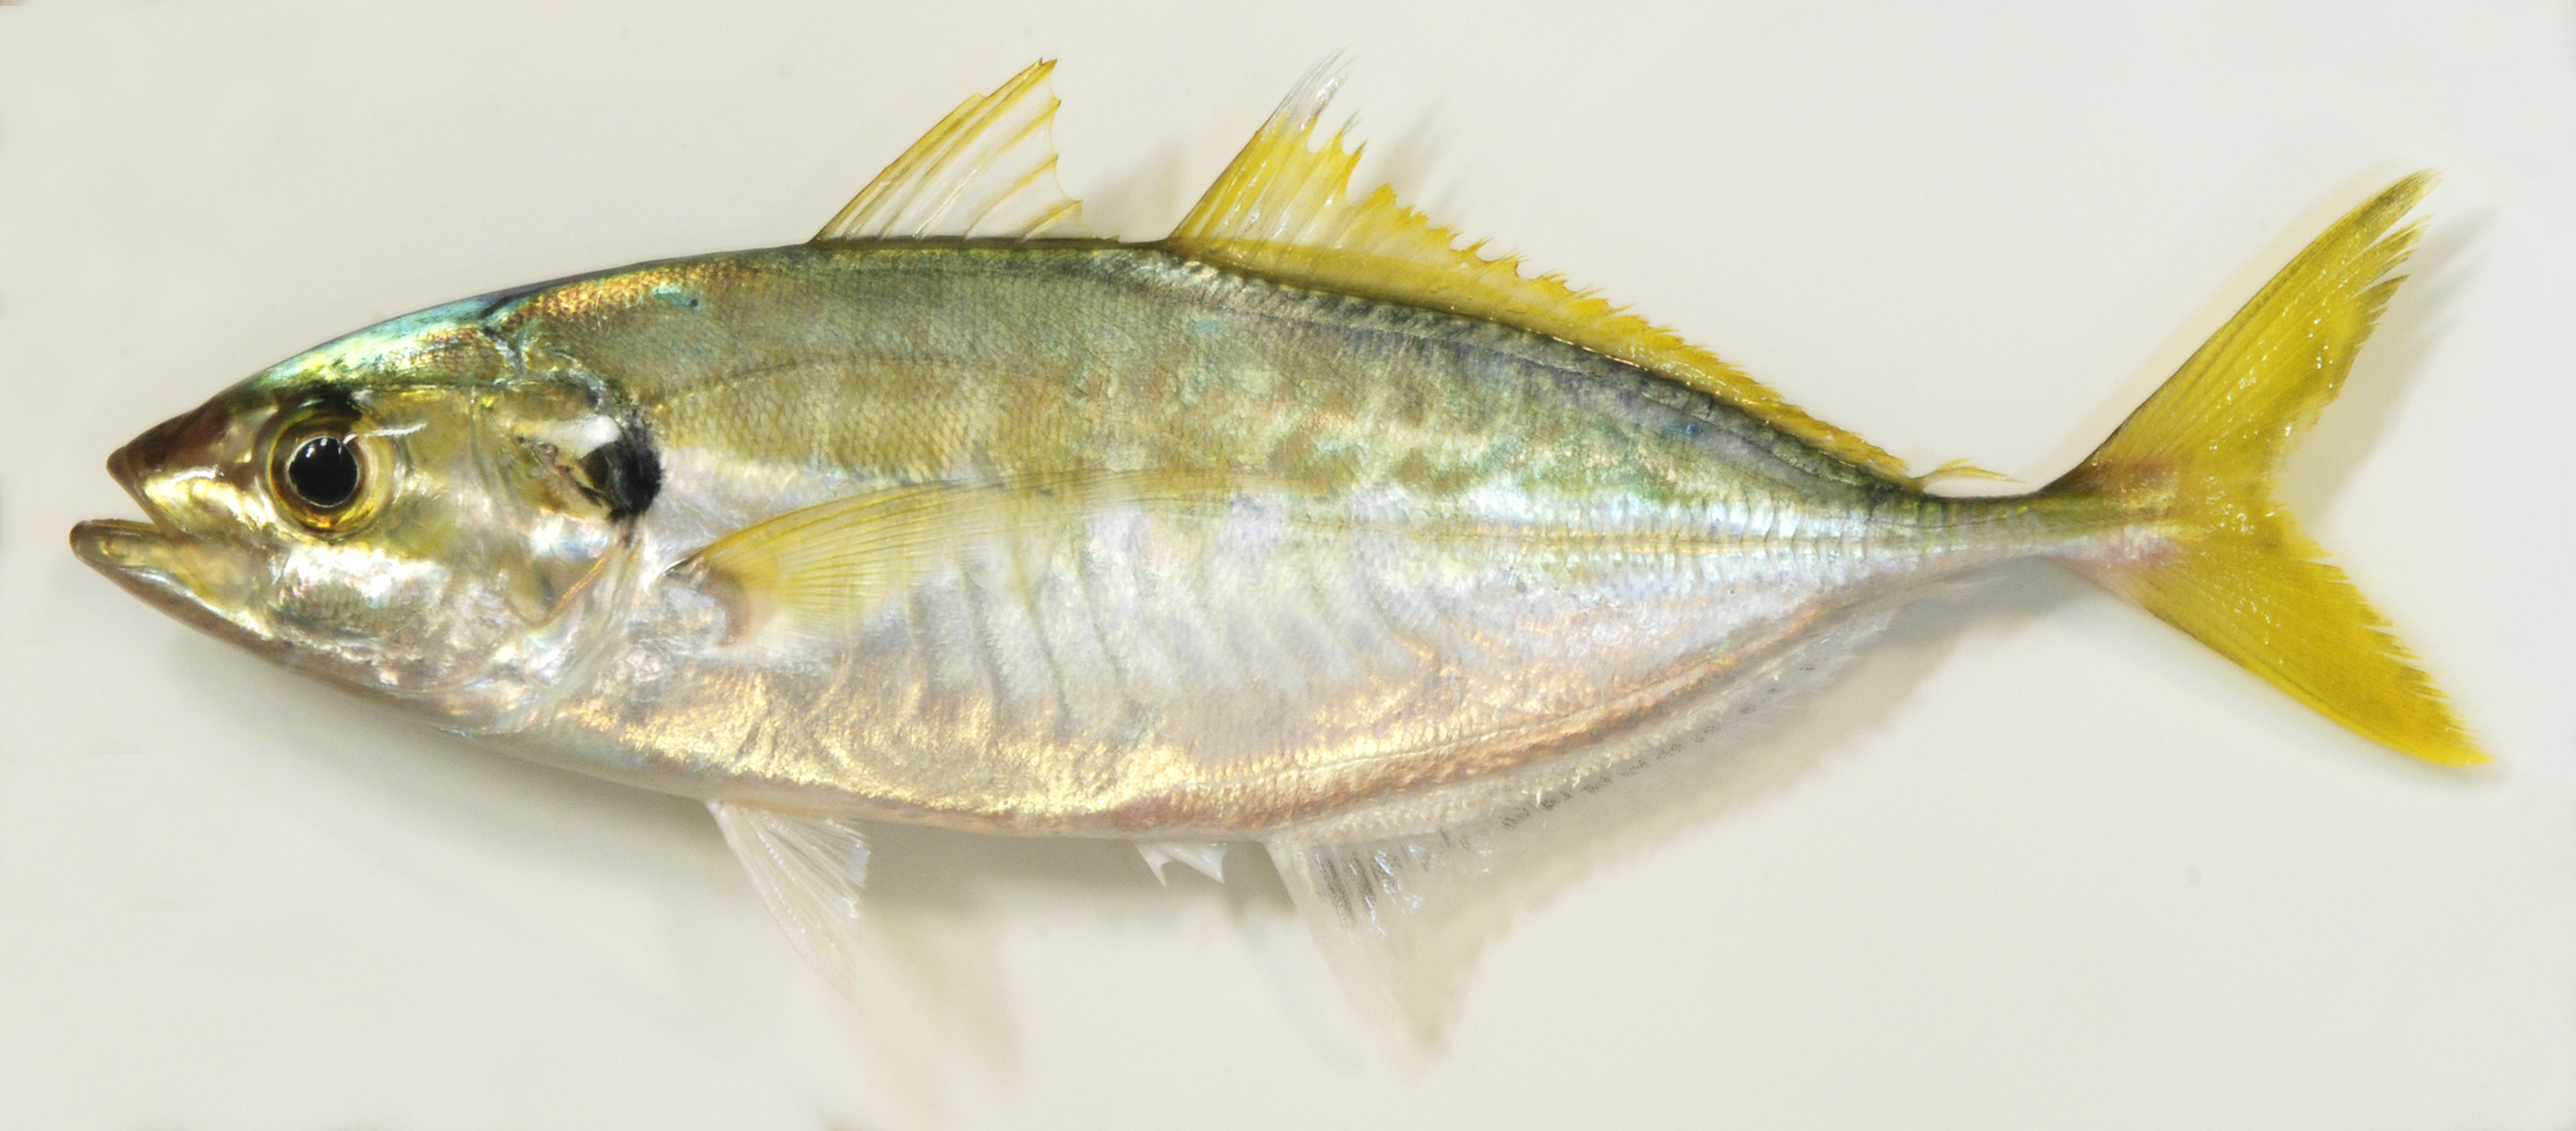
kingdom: Animalia
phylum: Chordata
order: Perciformes
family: Carangidae
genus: Atule
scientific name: Atule mate
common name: Yellowtail scad
